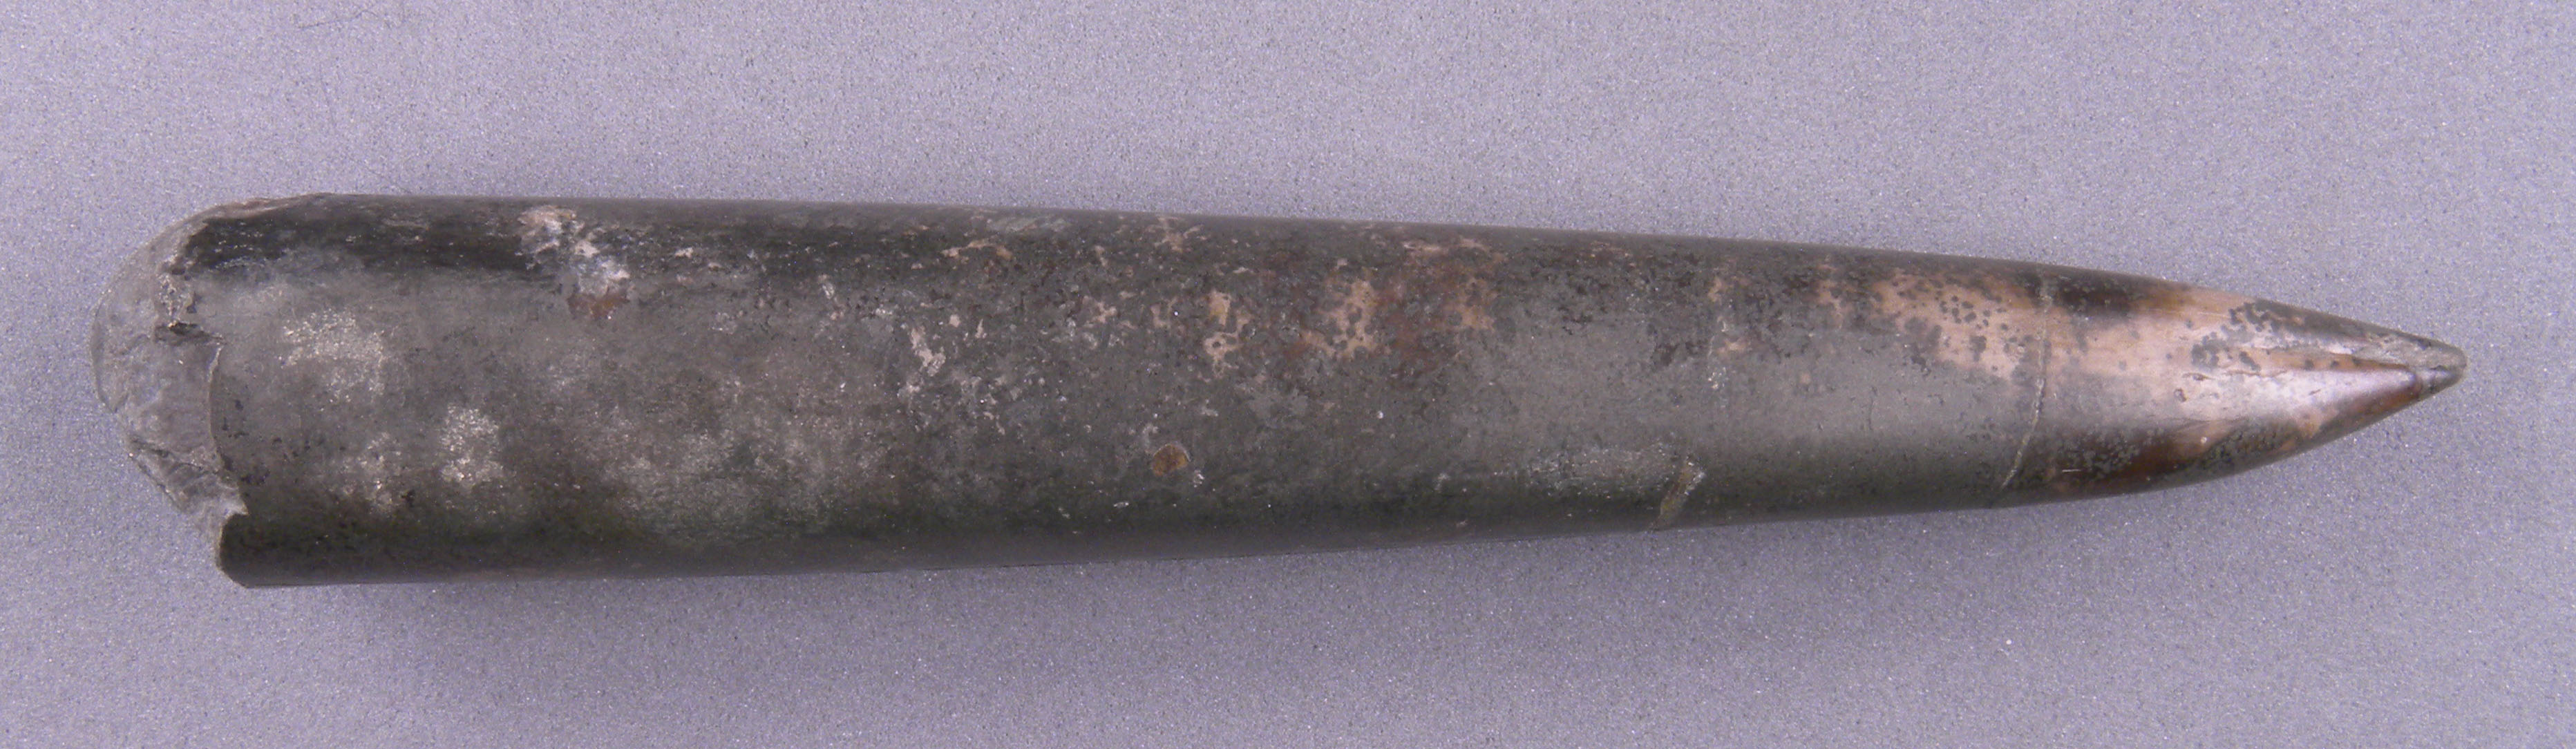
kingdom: Animalia
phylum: Mollusca
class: Cephalopoda
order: Belemnitida
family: Megateuthididae
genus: Acrocoelites
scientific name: Acrocoelites
